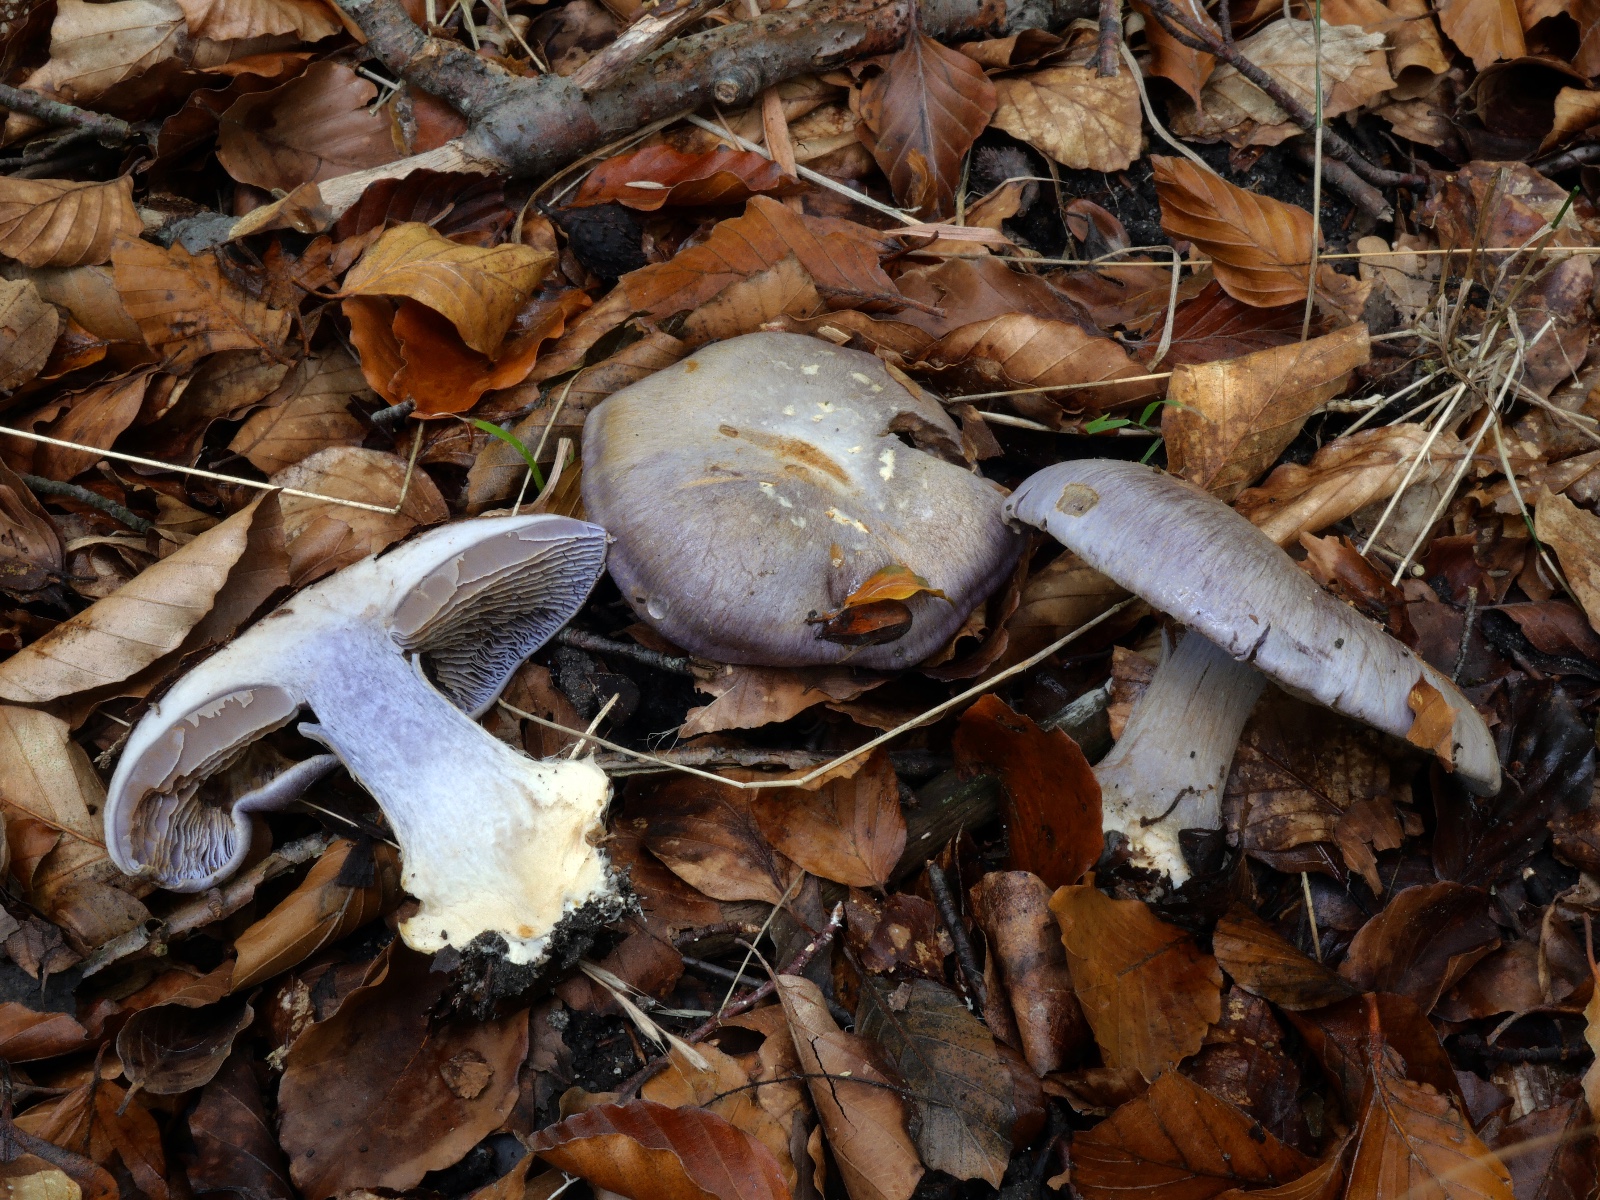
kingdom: Fungi
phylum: Basidiomycota
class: Agaricomycetes
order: Agaricales
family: Cortinariaceae
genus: Cortinarius
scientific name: Cortinarius caerulescens
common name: blåkødet slørhat
